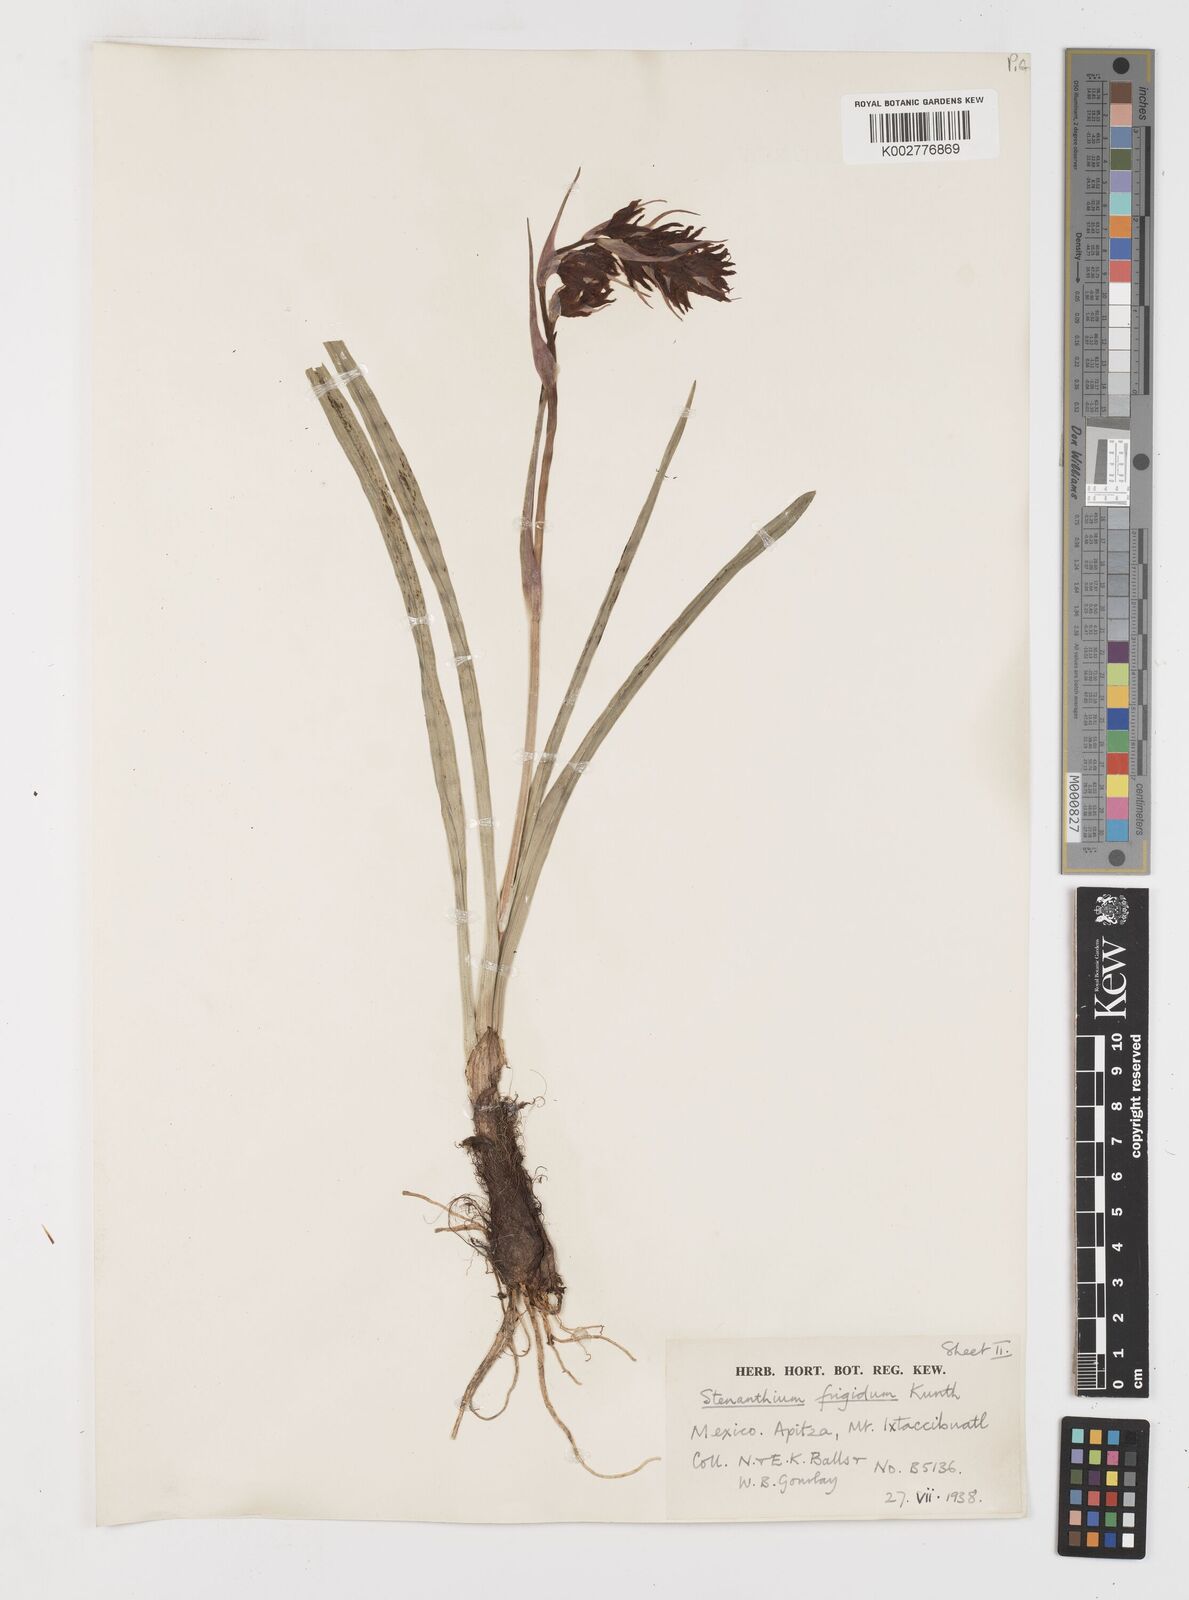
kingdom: Plantae
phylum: Tracheophyta
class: Liliopsida
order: Liliales
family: Melanthiaceae
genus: Anticlea
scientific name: Anticlea frigida
